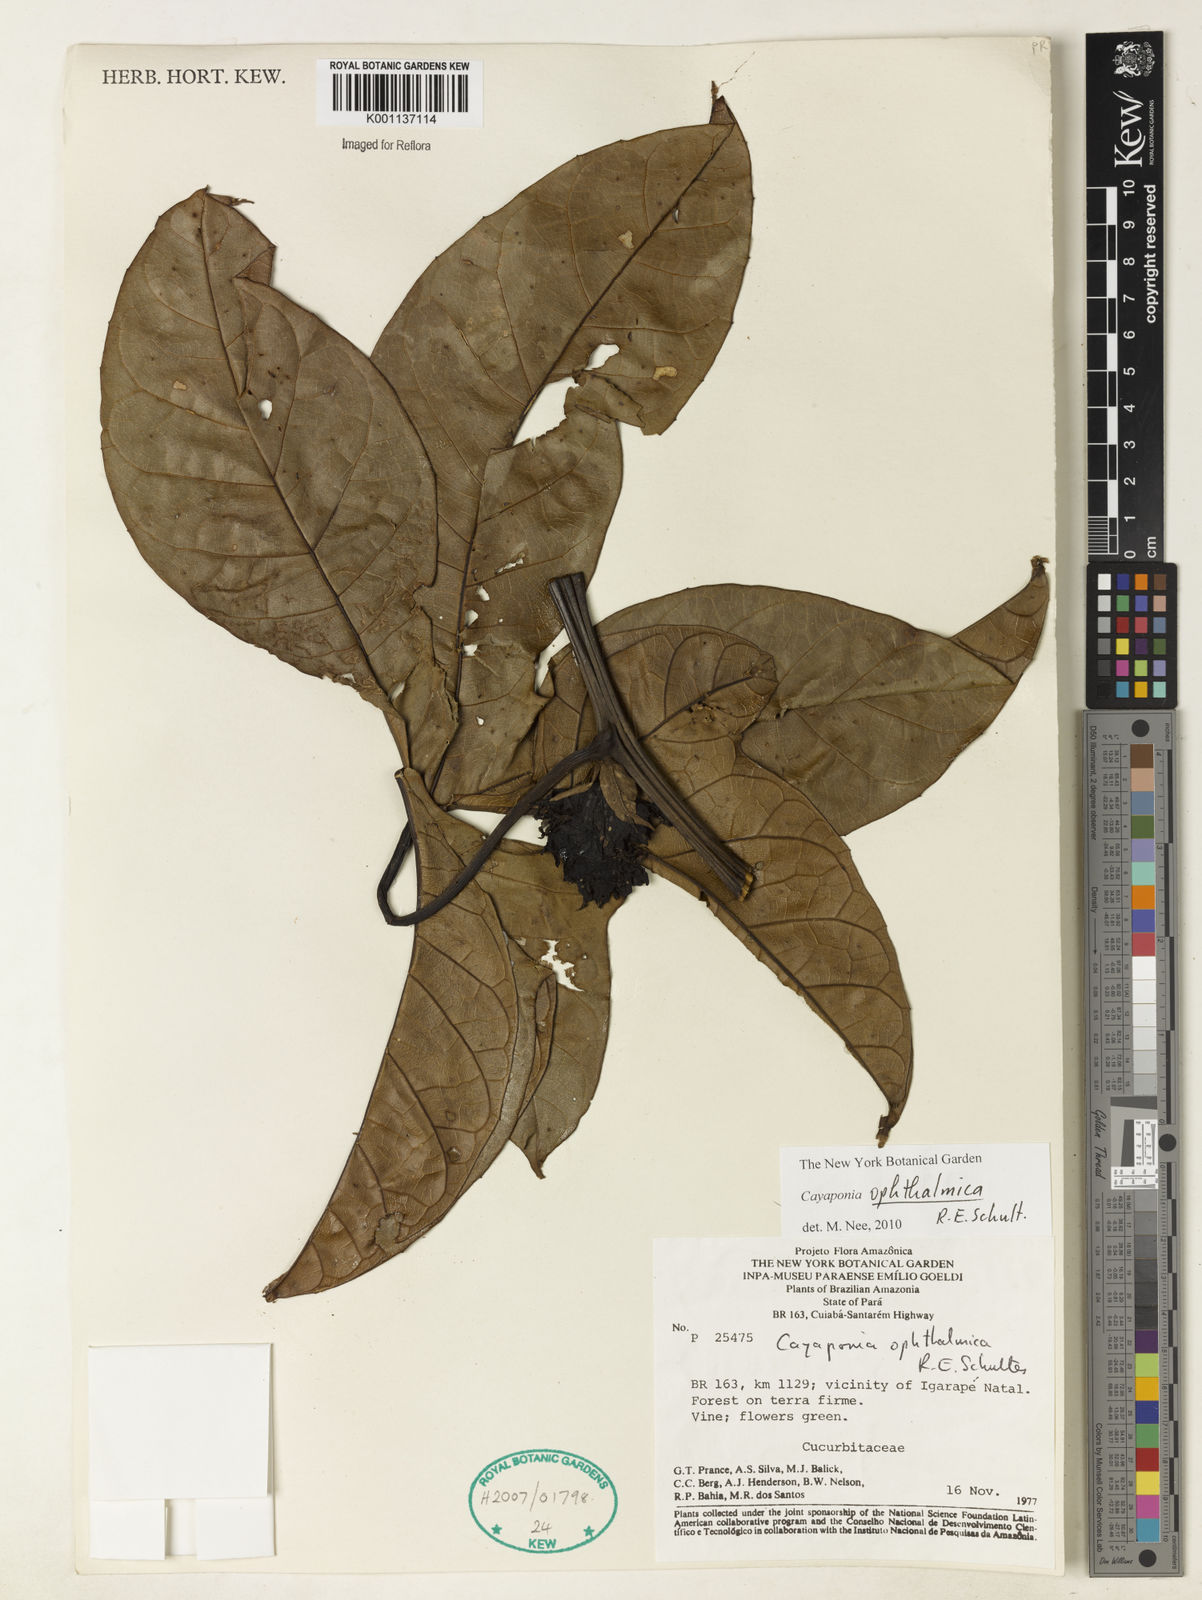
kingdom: Plantae
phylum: Tracheophyta
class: Magnoliopsida
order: Cucurbitales
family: Cucurbitaceae
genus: Cayaponia
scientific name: Cayaponia ophthalmica
